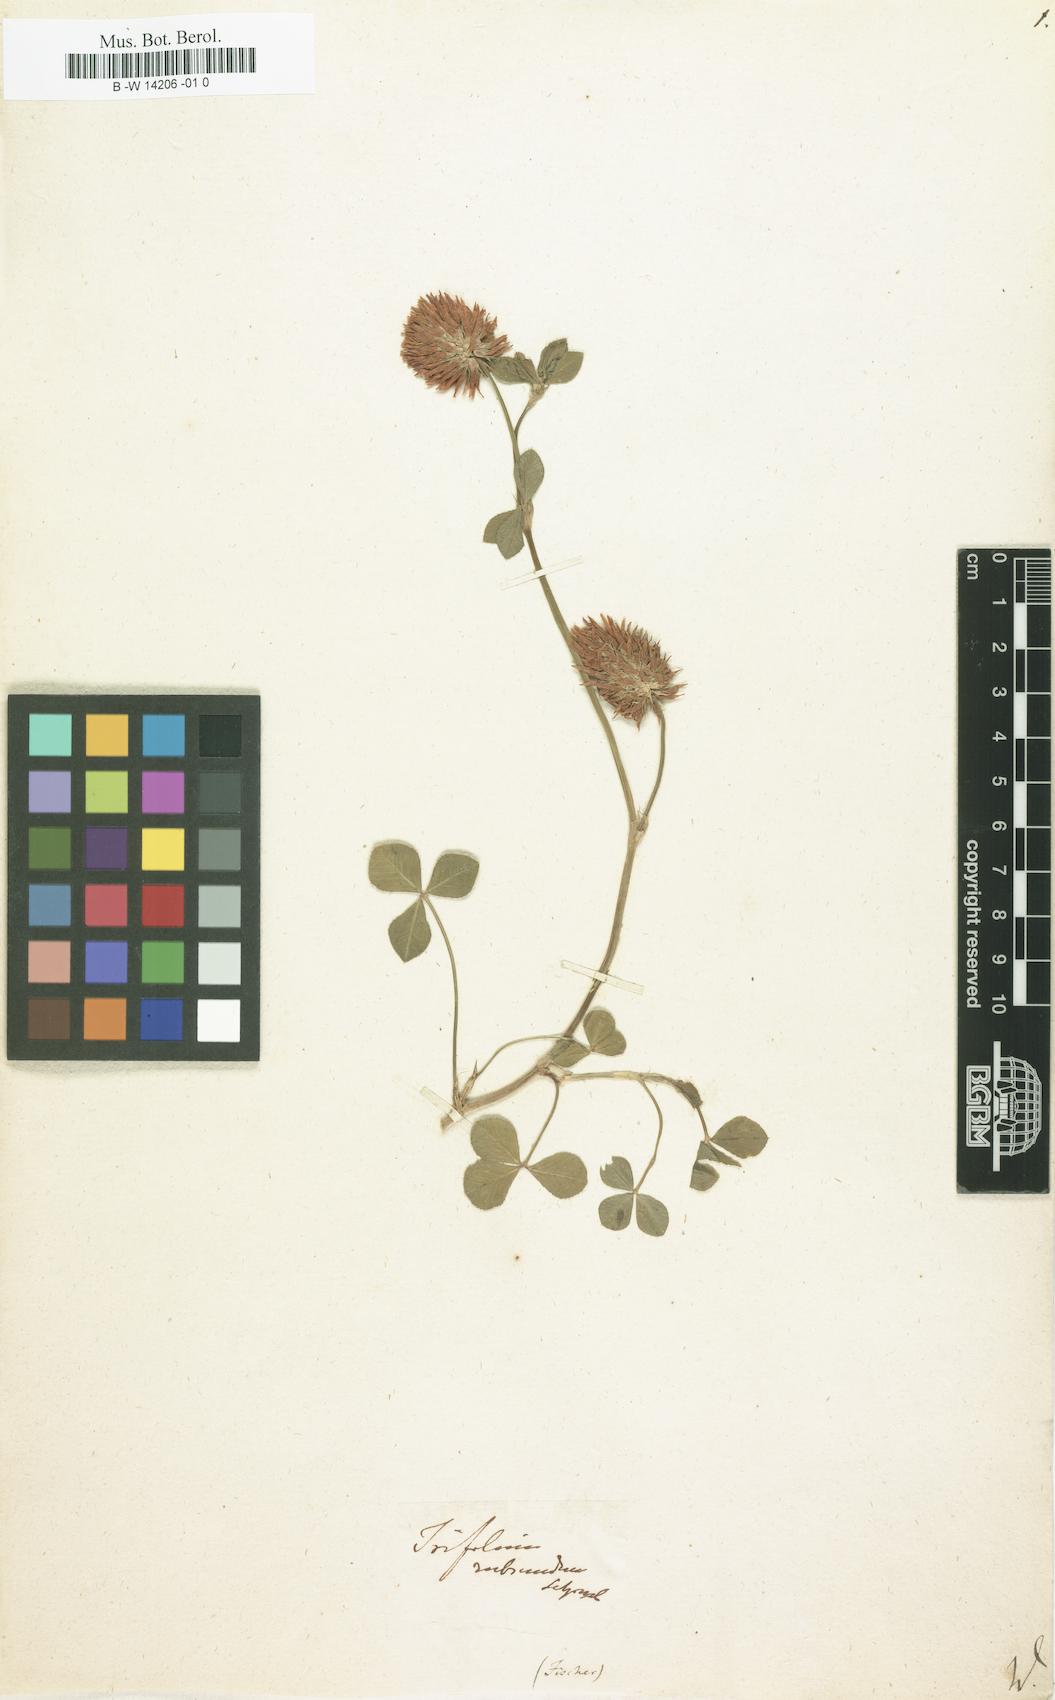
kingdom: Plantae
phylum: Tracheophyta
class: Magnoliopsida
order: Fabales
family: Fabaceae
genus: Trifolium
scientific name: Trifolium
